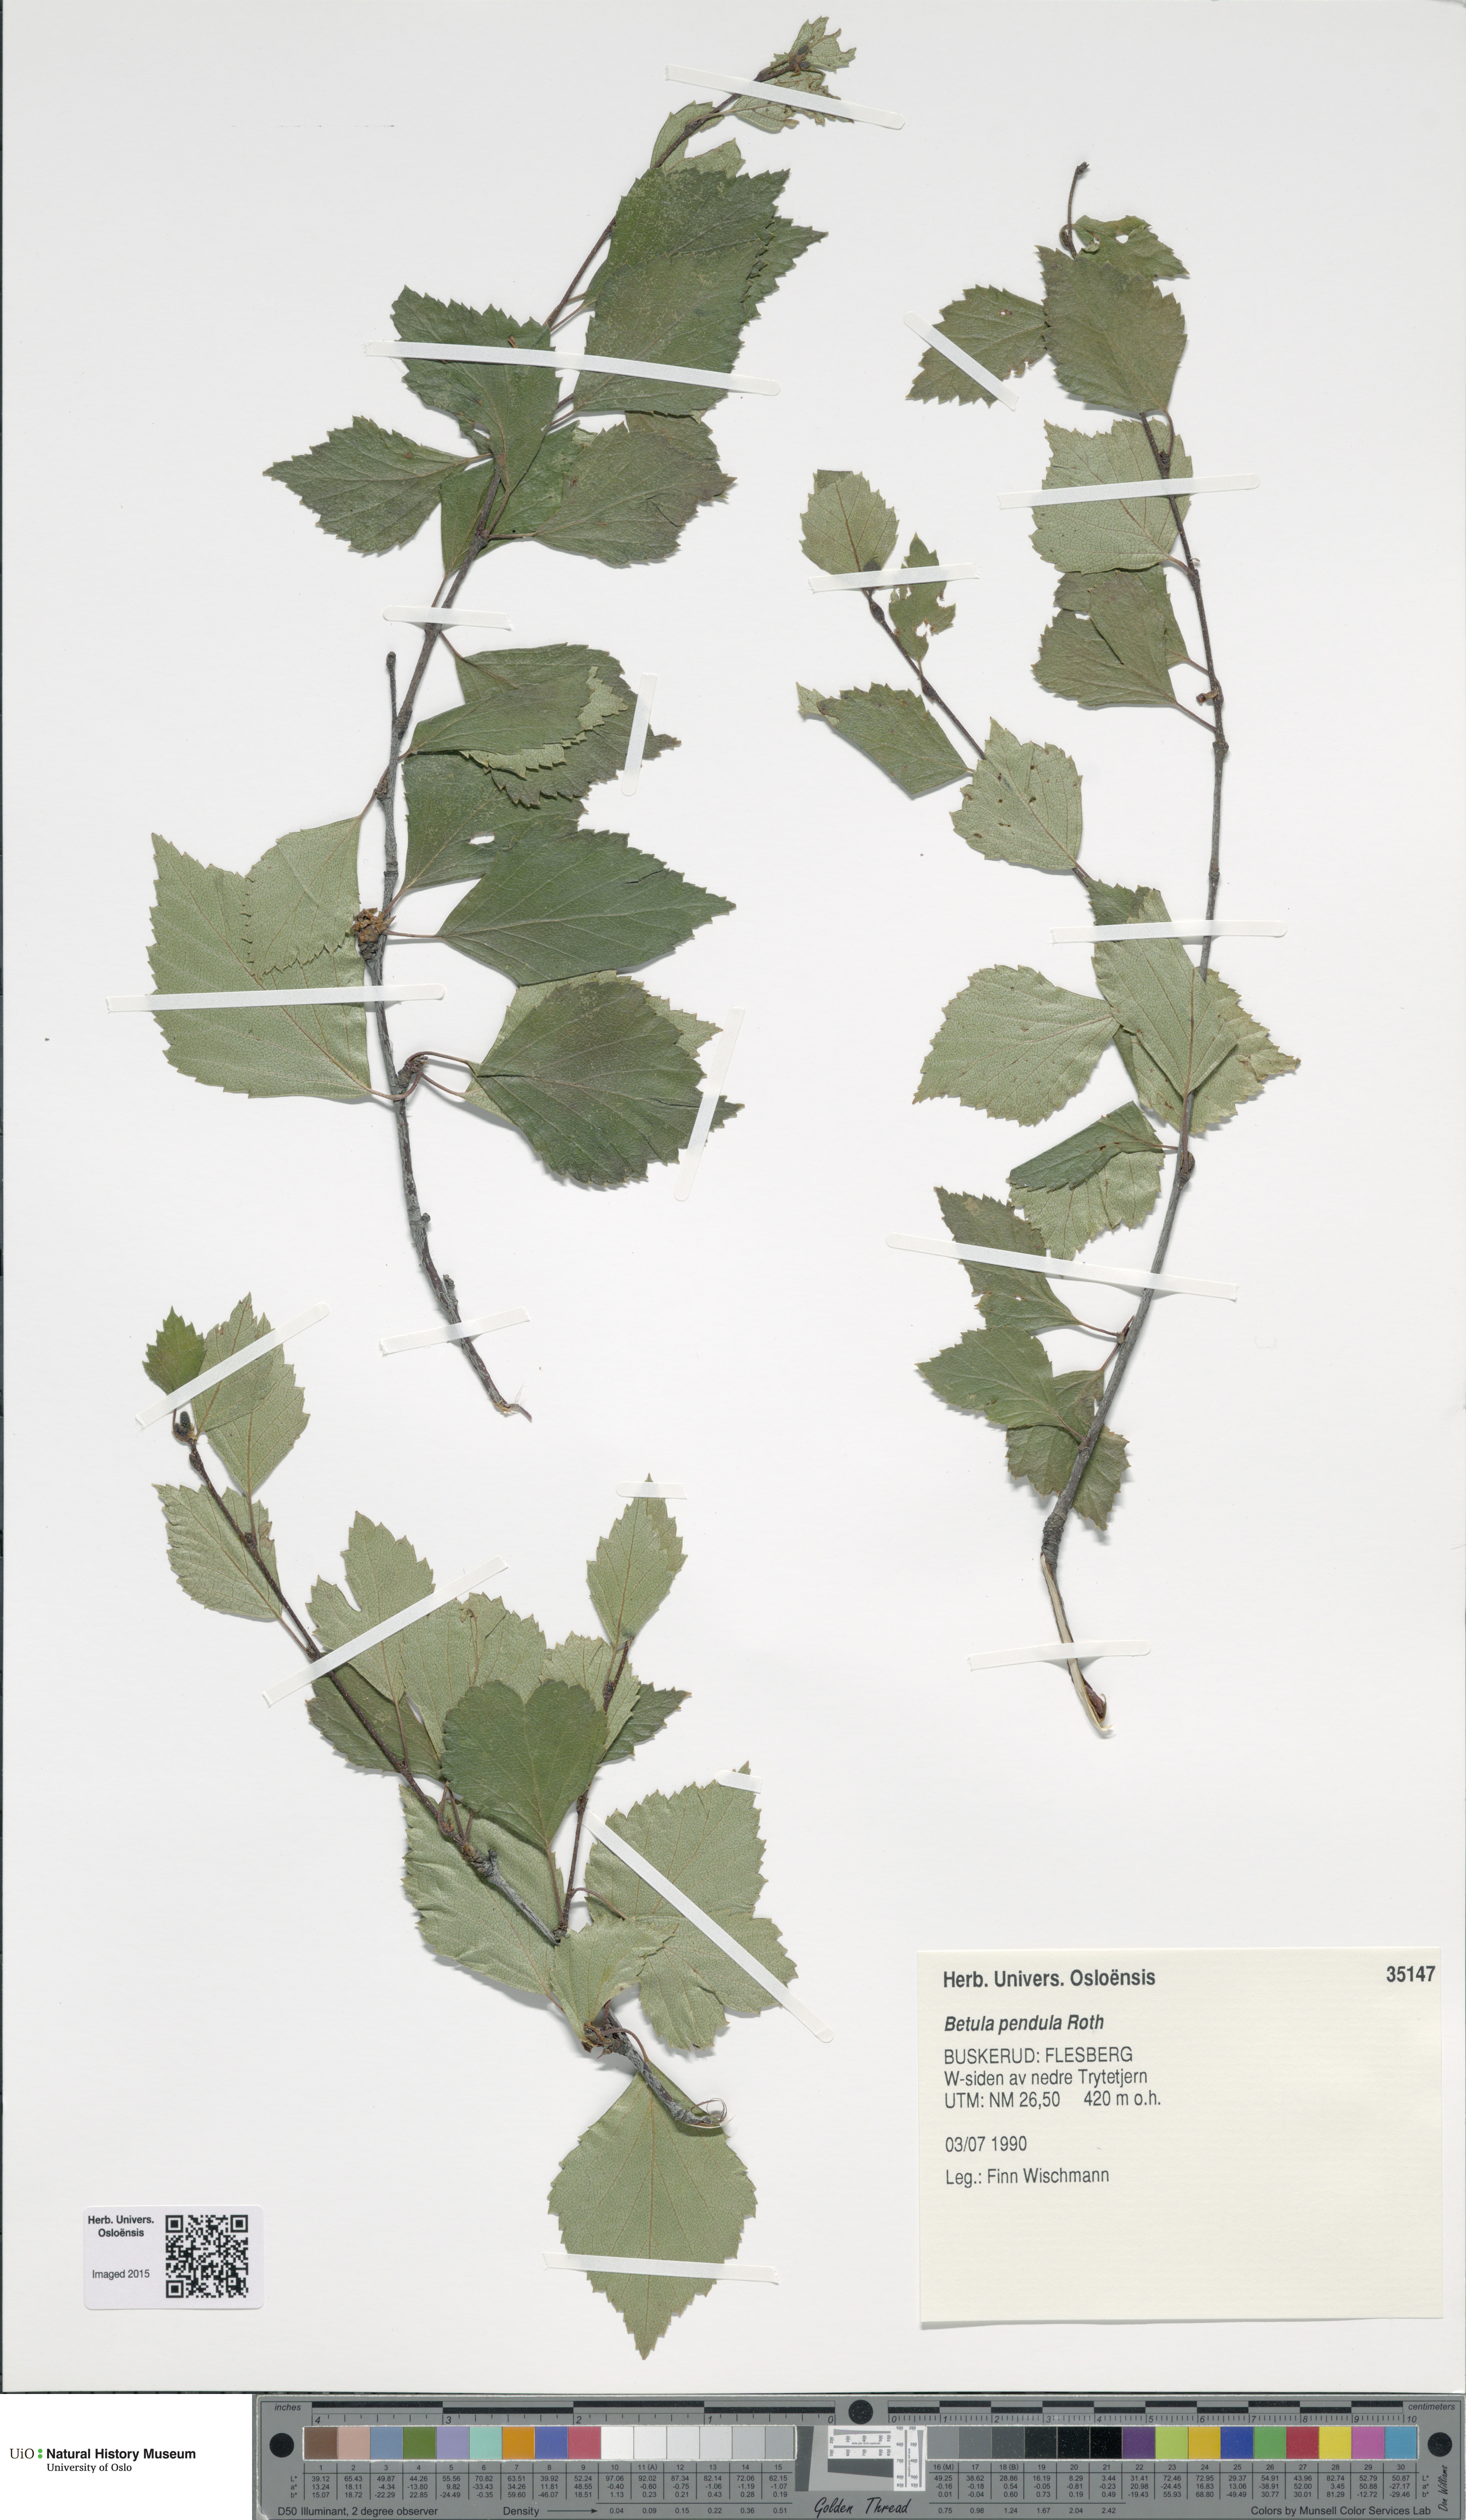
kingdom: Plantae
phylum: Tracheophyta
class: Magnoliopsida
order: Fagales
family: Betulaceae
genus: Betula
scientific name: Betula pendula
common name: Silver birch
